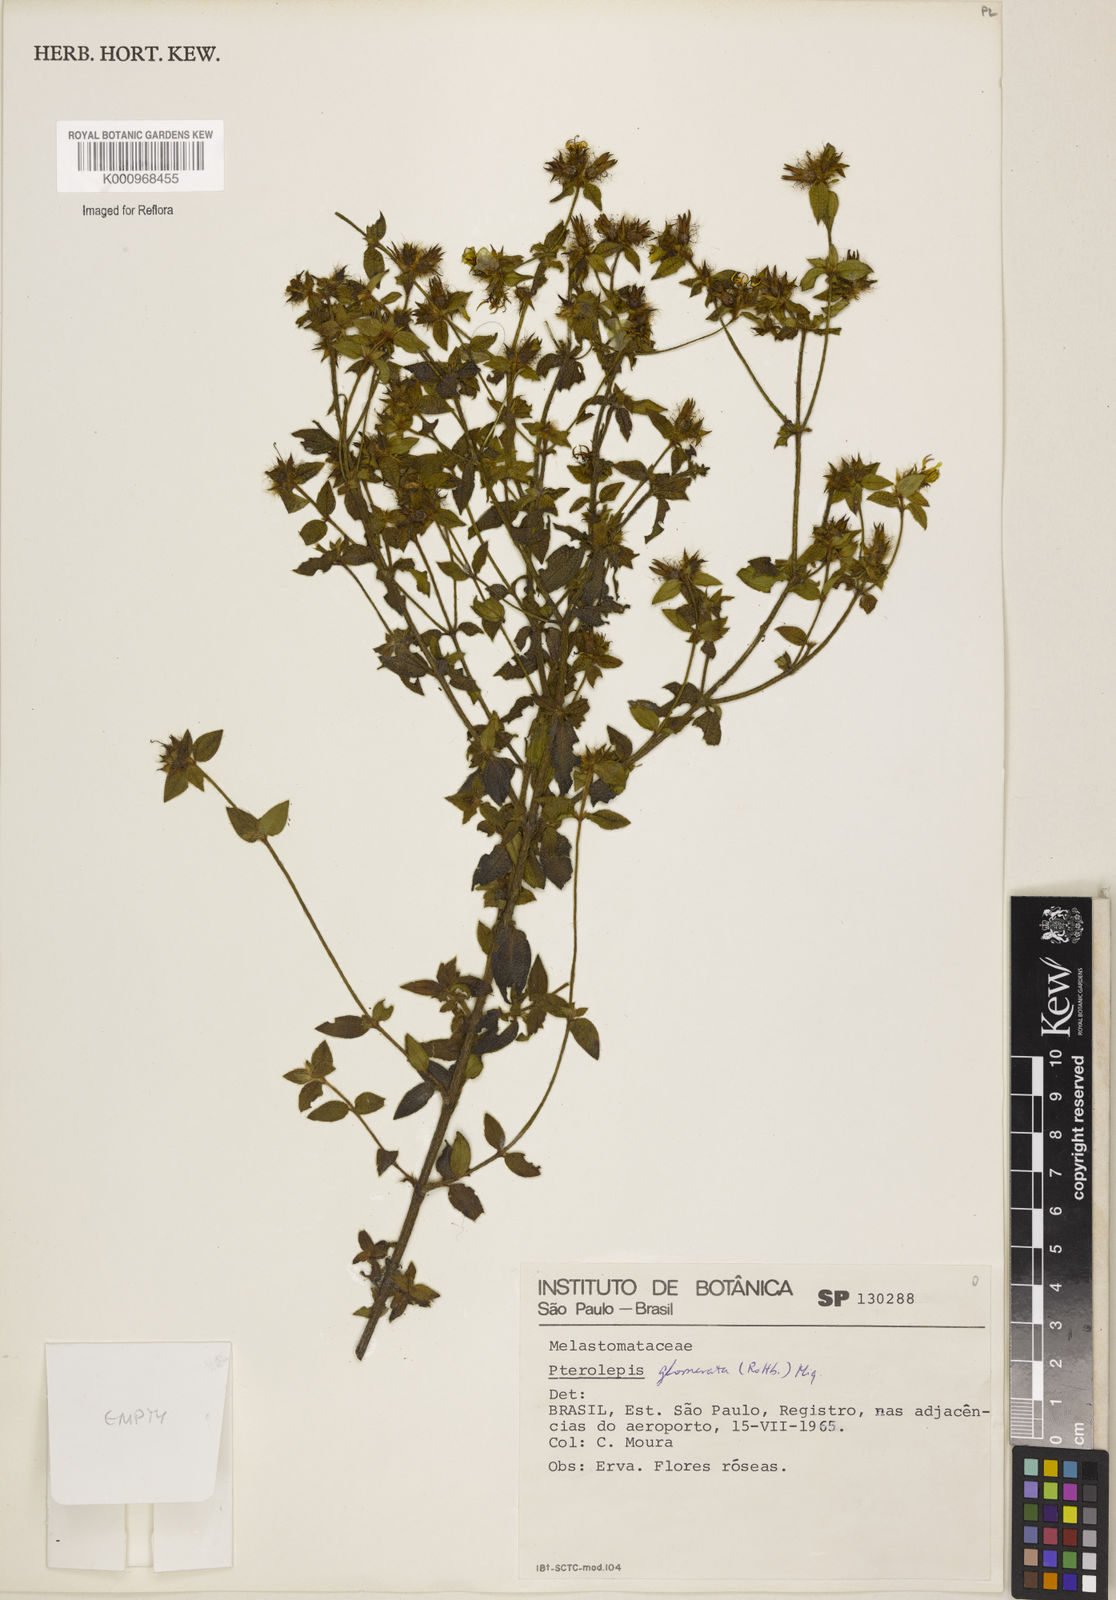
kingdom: Plantae
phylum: Tracheophyta
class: Magnoliopsida
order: Myrtales
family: Melastomataceae
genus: Pterolepis
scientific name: Pterolepis glomerata
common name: False meadowbeauty
